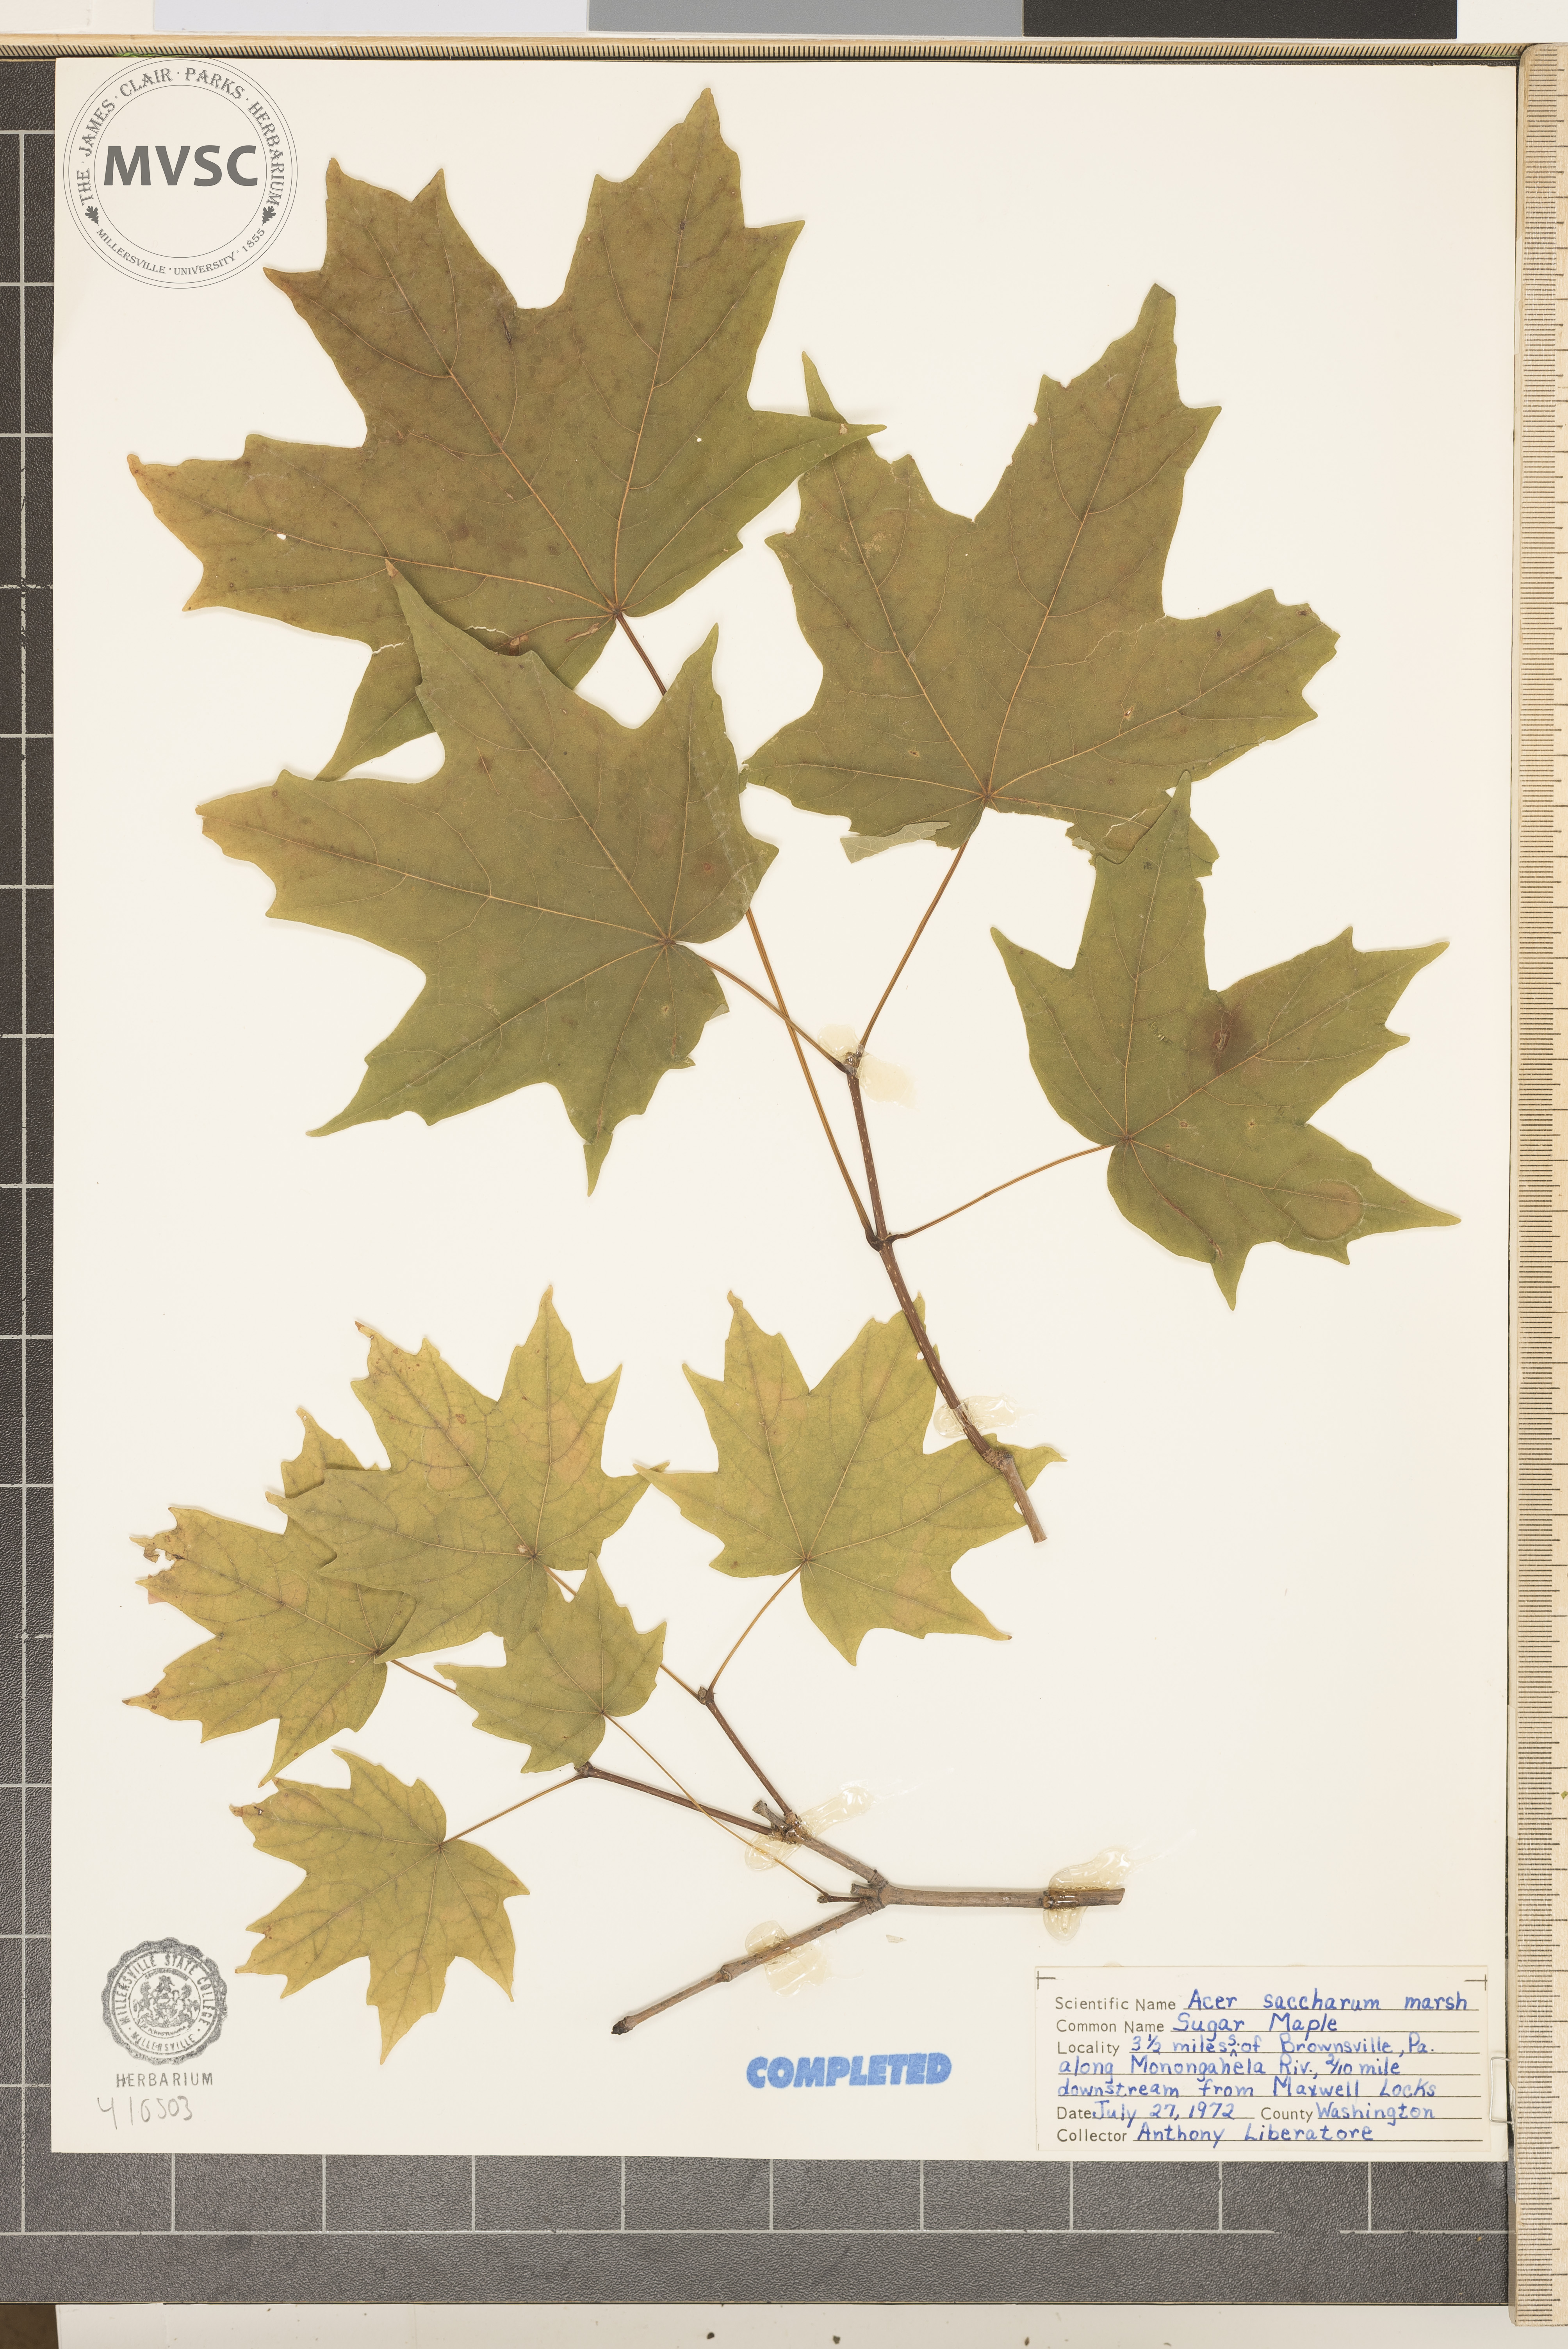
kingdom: Plantae
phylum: Tracheophyta
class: Magnoliopsida
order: Sapindales
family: Sapindaceae
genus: Acer
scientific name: Acer saccharum
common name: Sugar maple
